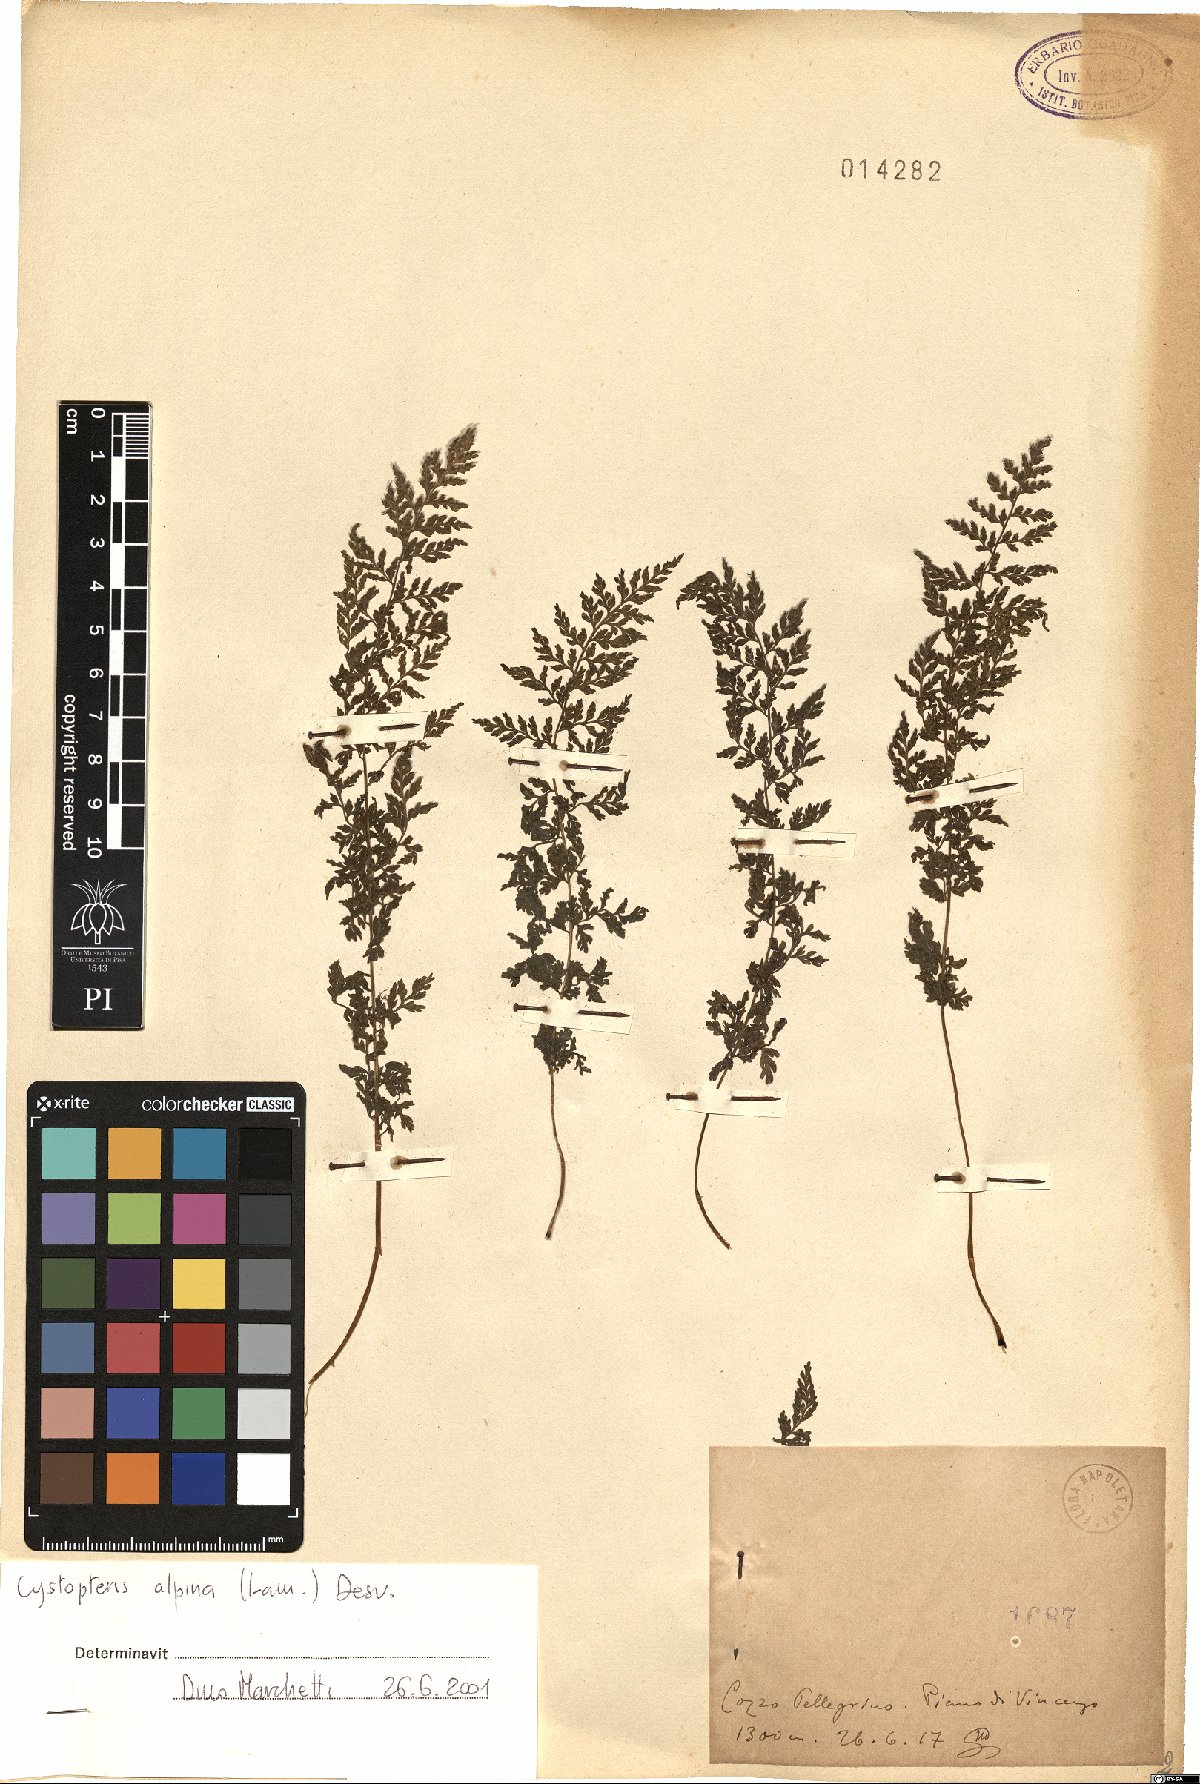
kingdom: Plantae
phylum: Tracheophyta
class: Polypodiopsida
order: Polypodiales
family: Cystopteridaceae
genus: Cystopteris
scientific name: Cystopteris alpina
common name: Alpine bladder-fern
